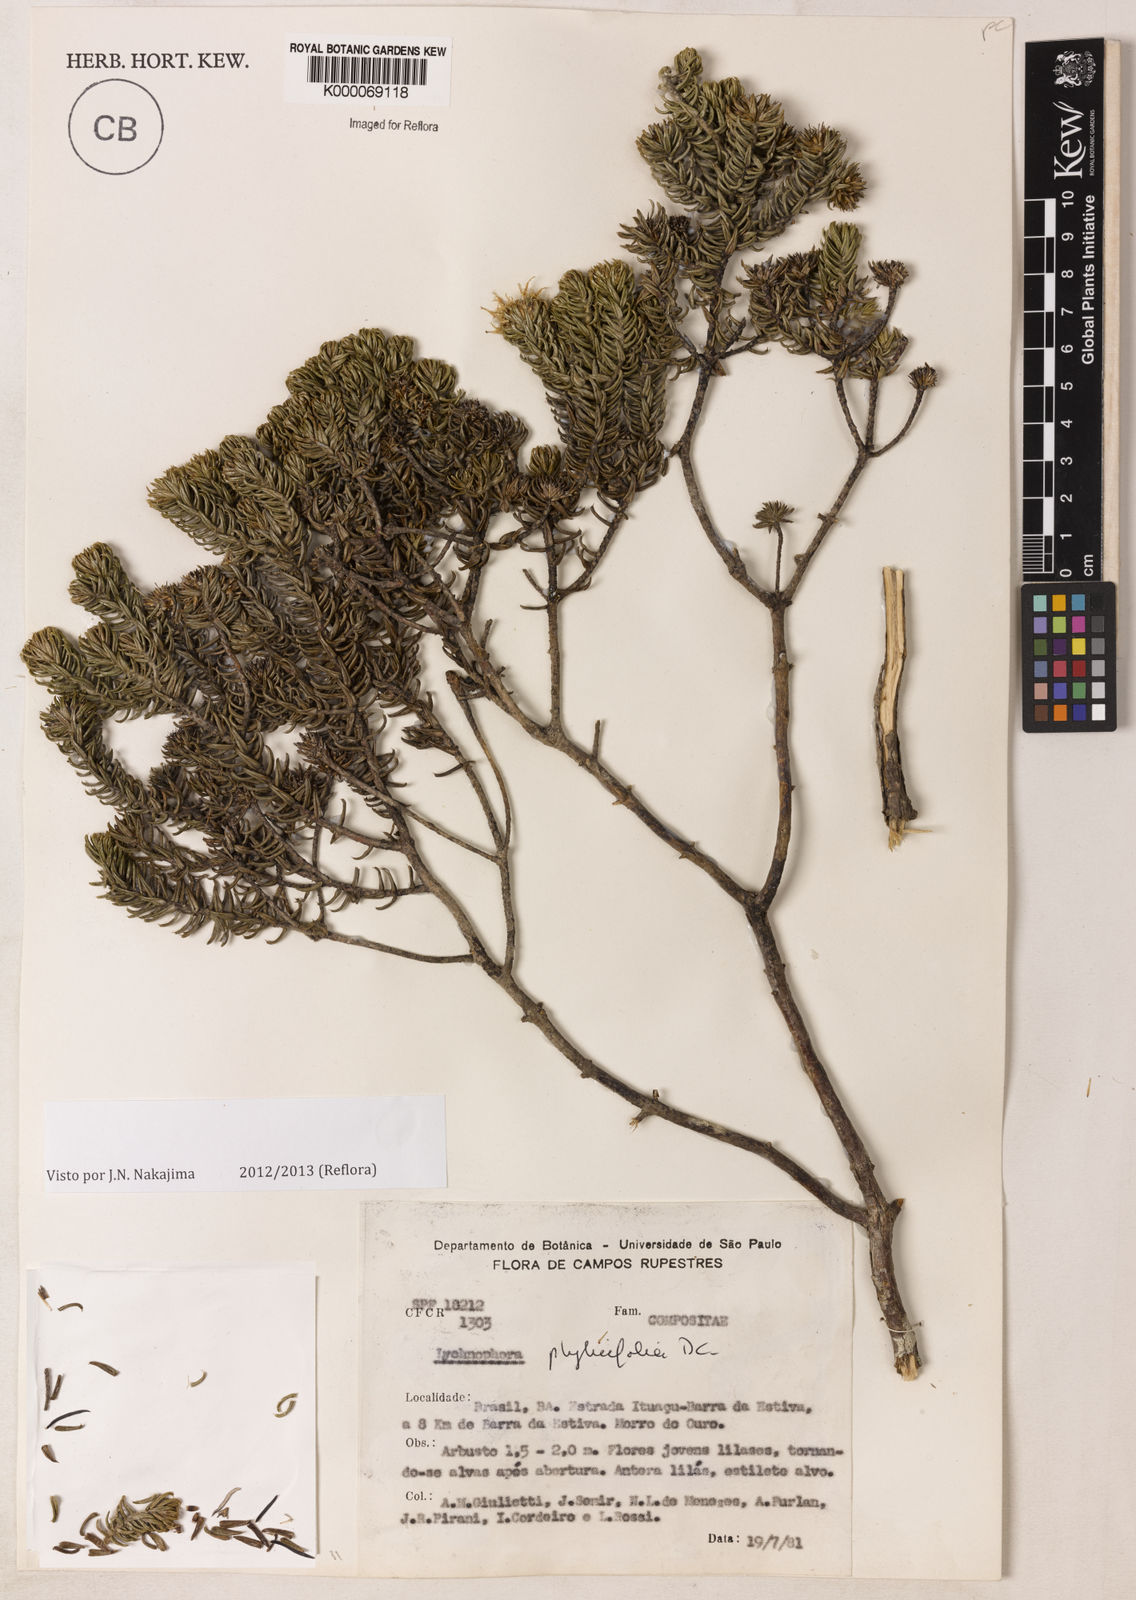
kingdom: Plantae
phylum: Tracheophyta
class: Magnoliopsida
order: Asterales
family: Asteraceae
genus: Lychnophora
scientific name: Lychnophora phylicifolia
